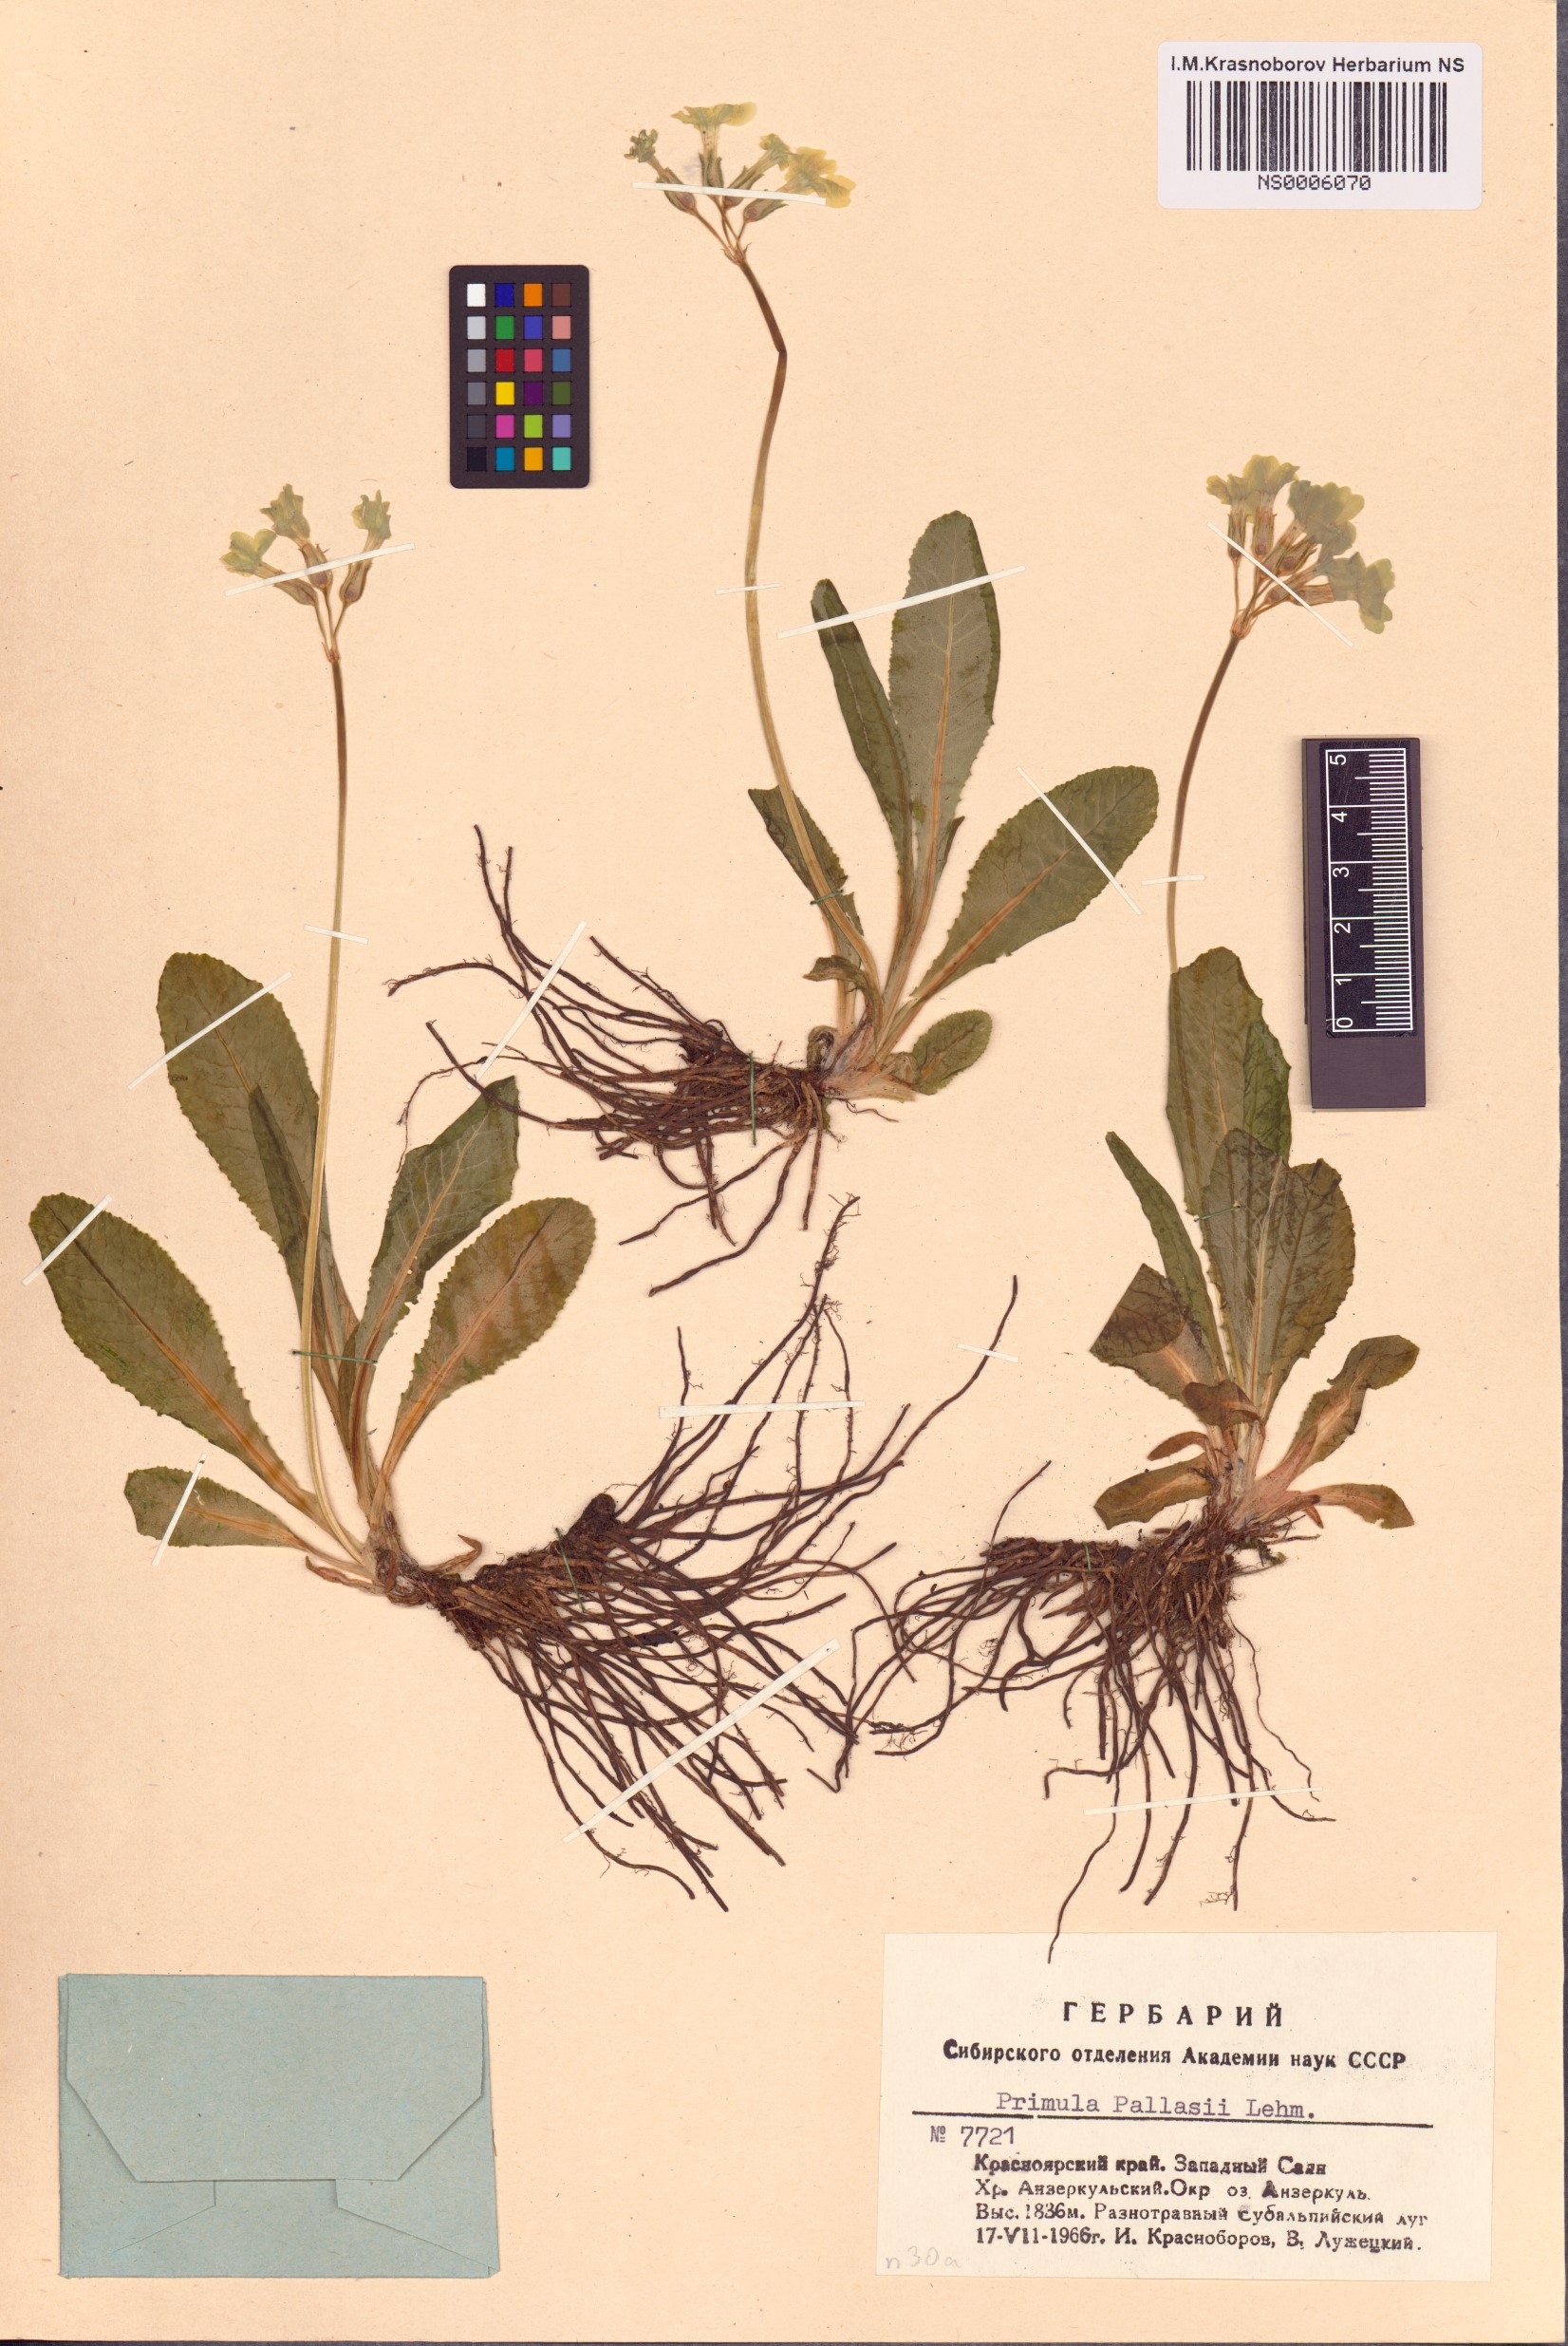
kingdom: Plantae
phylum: Tracheophyta
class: Magnoliopsida
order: Ericales
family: Primulaceae
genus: Primula
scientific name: Primula elatior
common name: Oxlip
